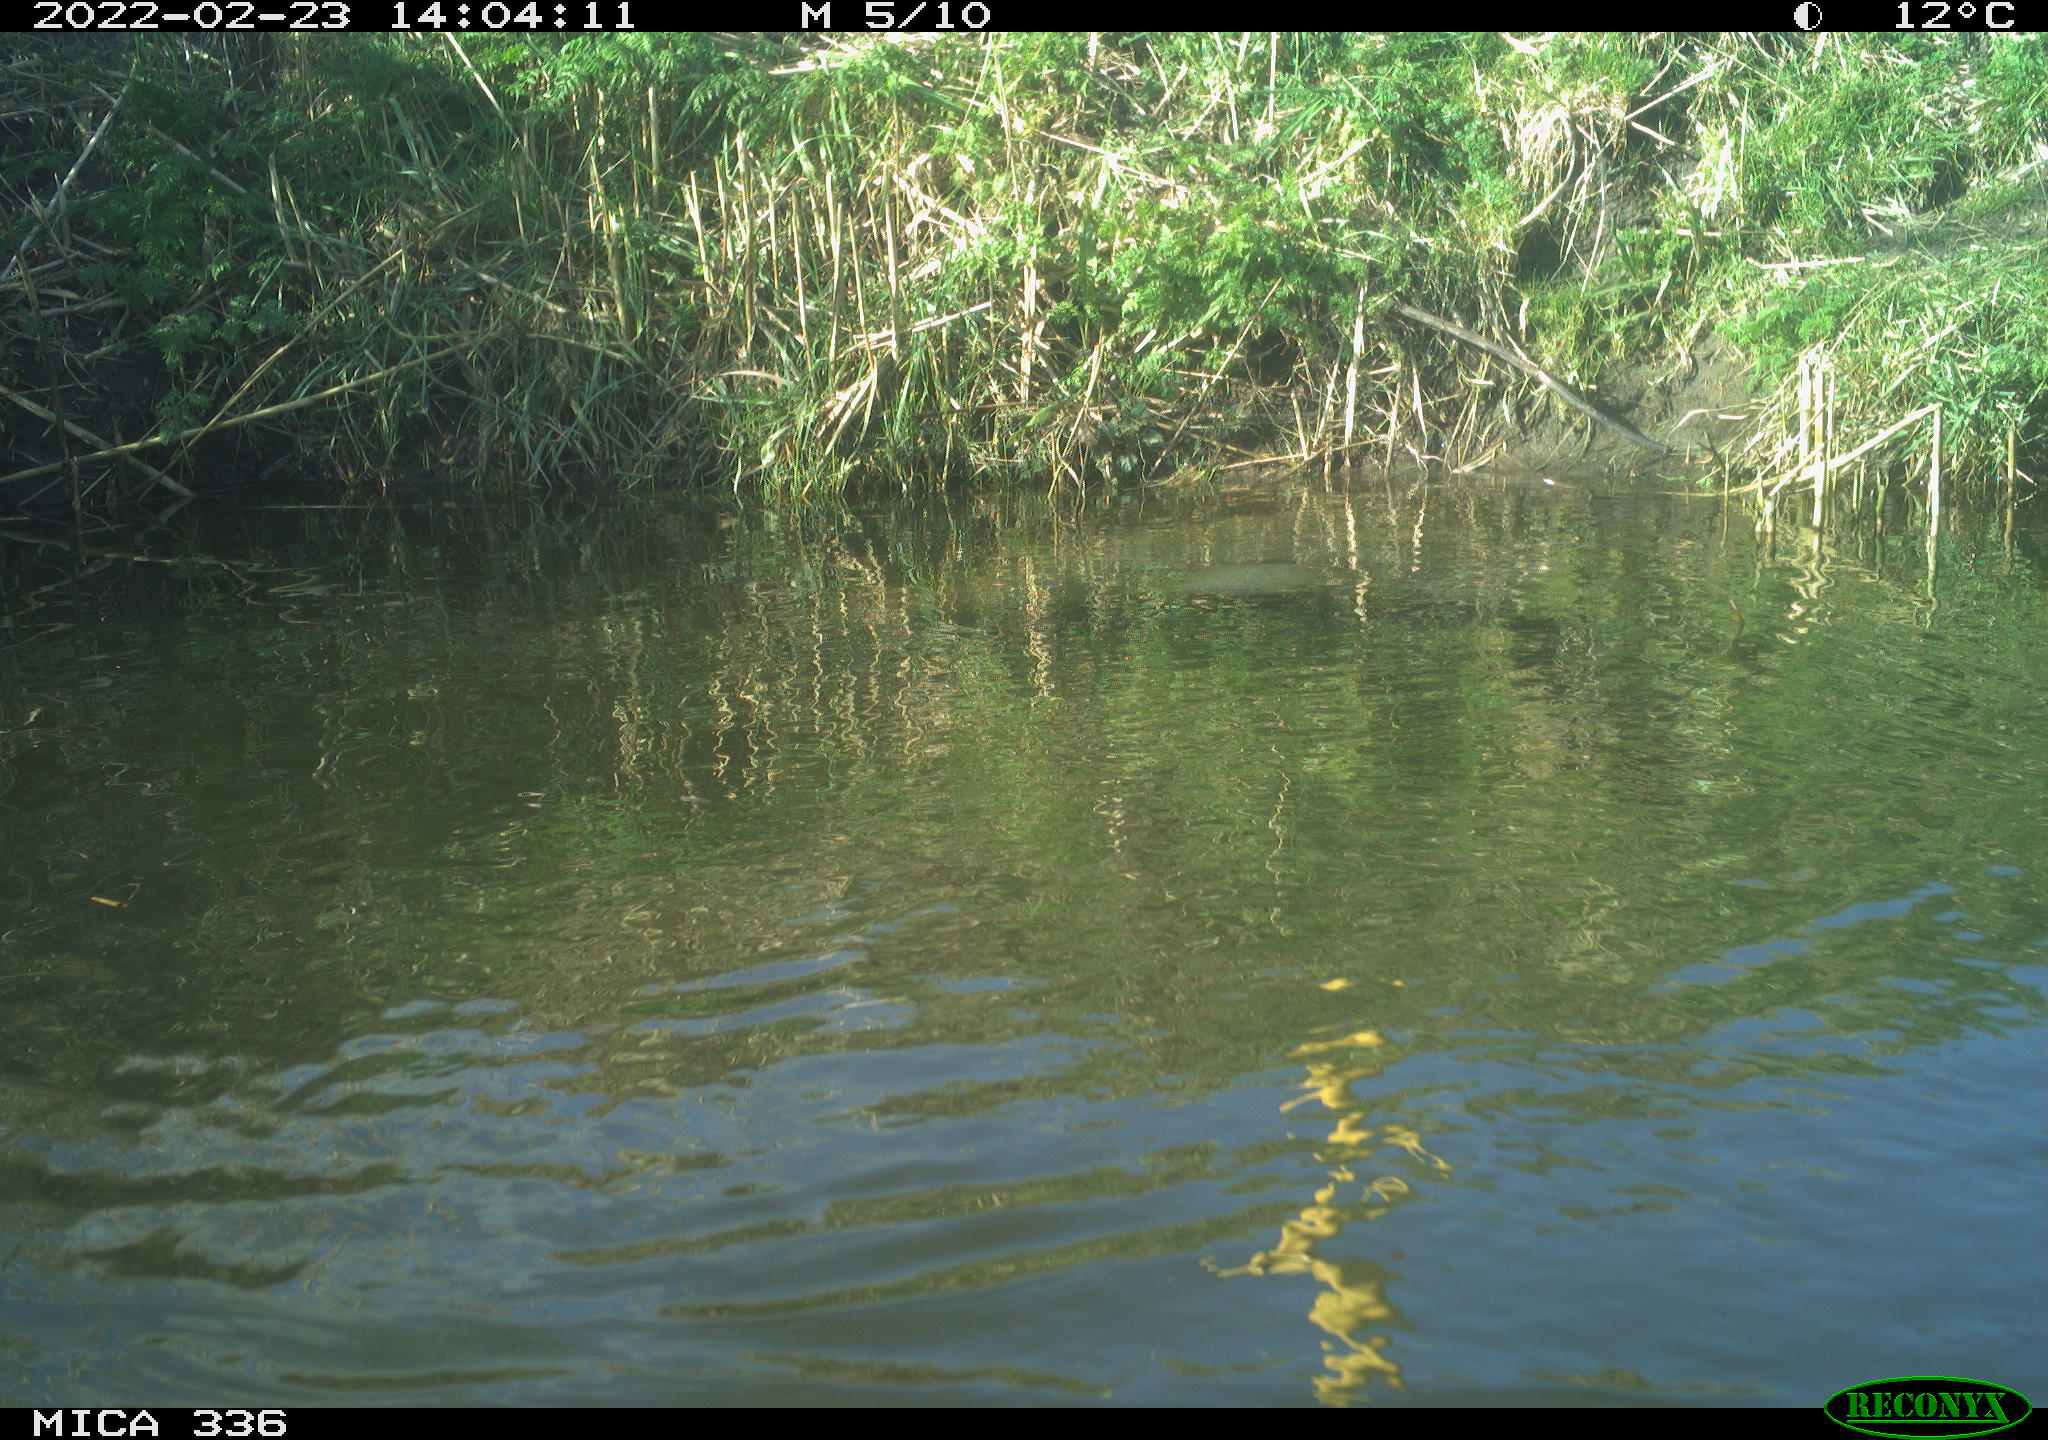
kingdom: Animalia
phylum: Chordata
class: Aves
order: Podicipediformes
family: Podicipedidae
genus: Podiceps
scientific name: Podiceps cristatus
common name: Great crested grebe
